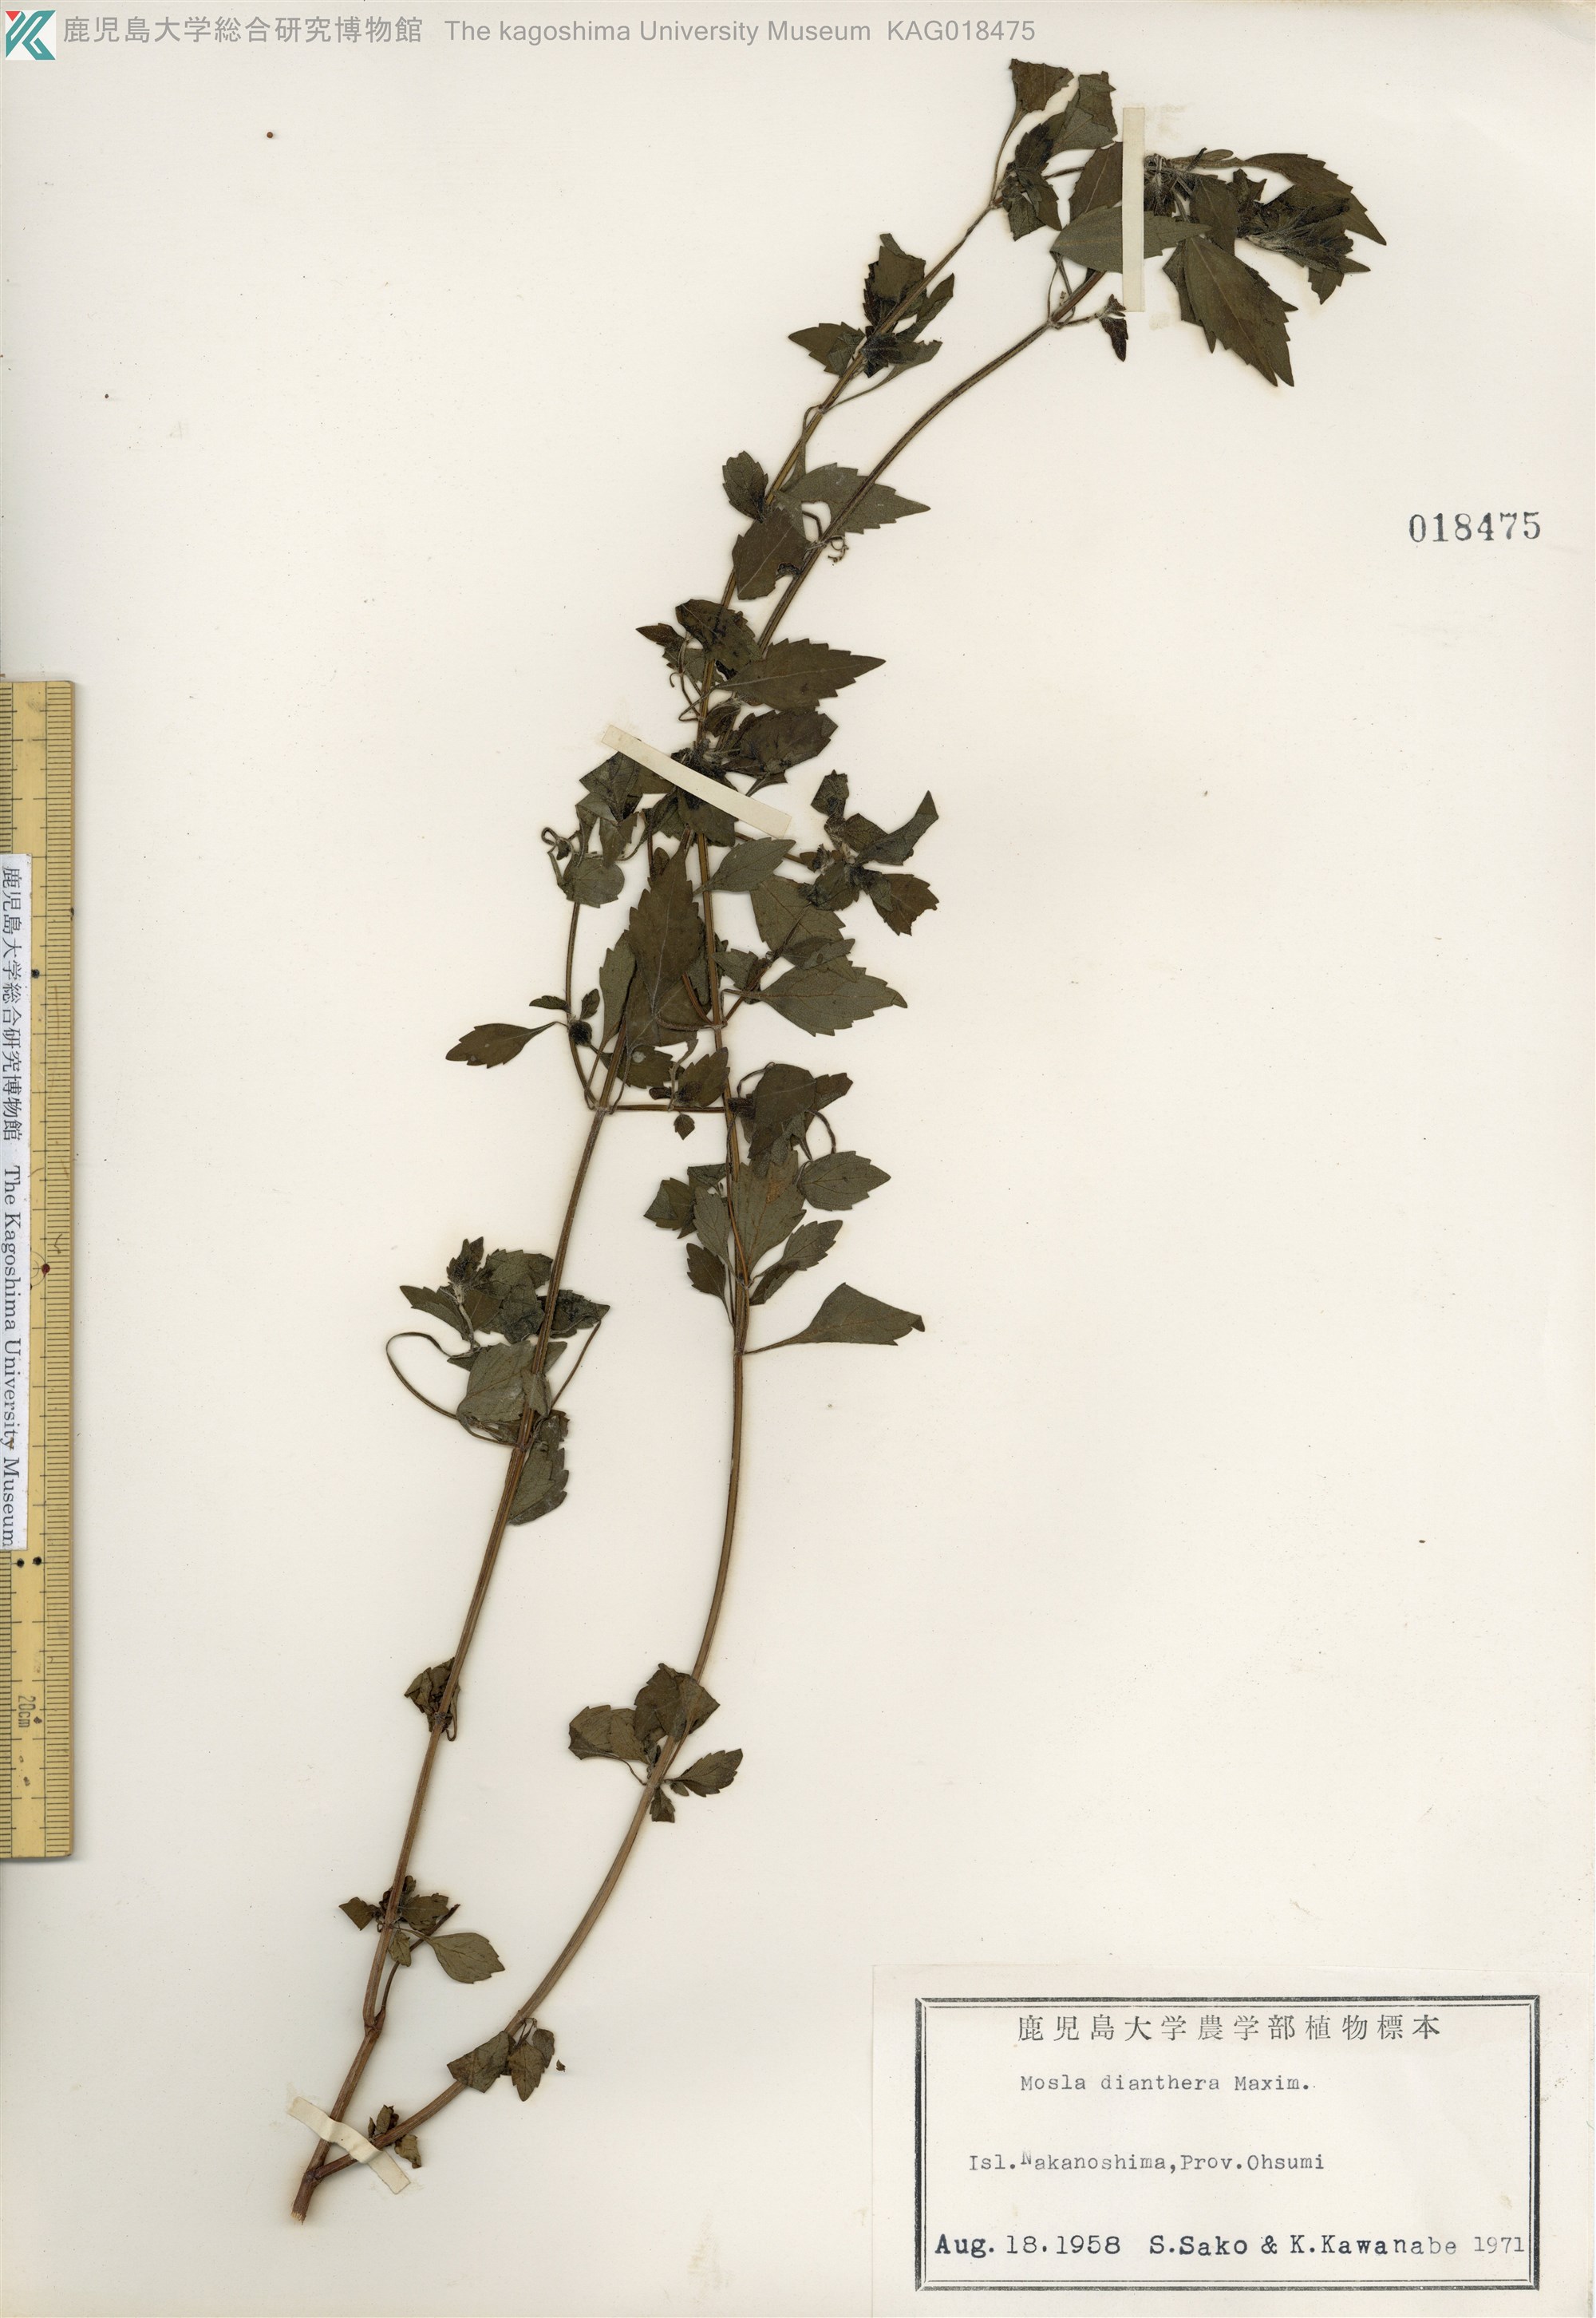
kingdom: Plantae
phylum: Tracheophyta
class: Magnoliopsida
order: Lamiales
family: Lamiaceae
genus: Mosla
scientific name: Mosla dianthera
